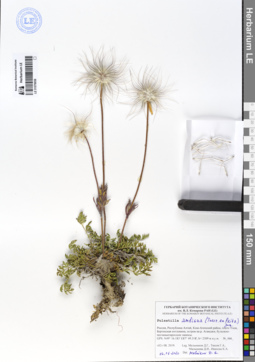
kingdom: Plantae
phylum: Tracheophyta
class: Magnoliopsida
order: Ranunculales
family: Ranunculaceae
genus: Pulsatilla
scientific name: Pulsatilla ambigua
